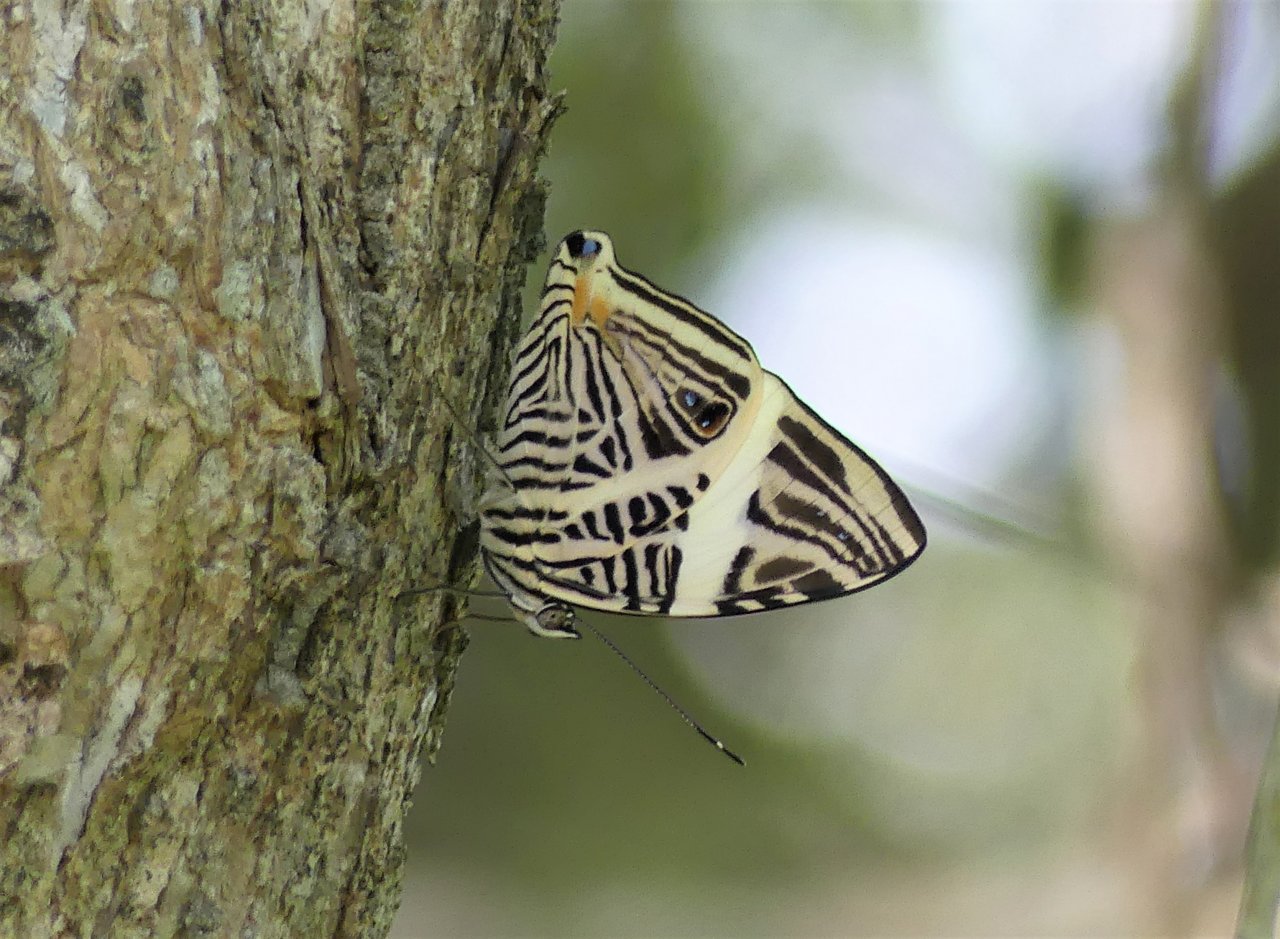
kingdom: Animalia
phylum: Arthropoda
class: Insecta
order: Lepidoptera
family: Nymphalidae
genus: Colobura
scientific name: Colobura dirce
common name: Dirce Beauty
